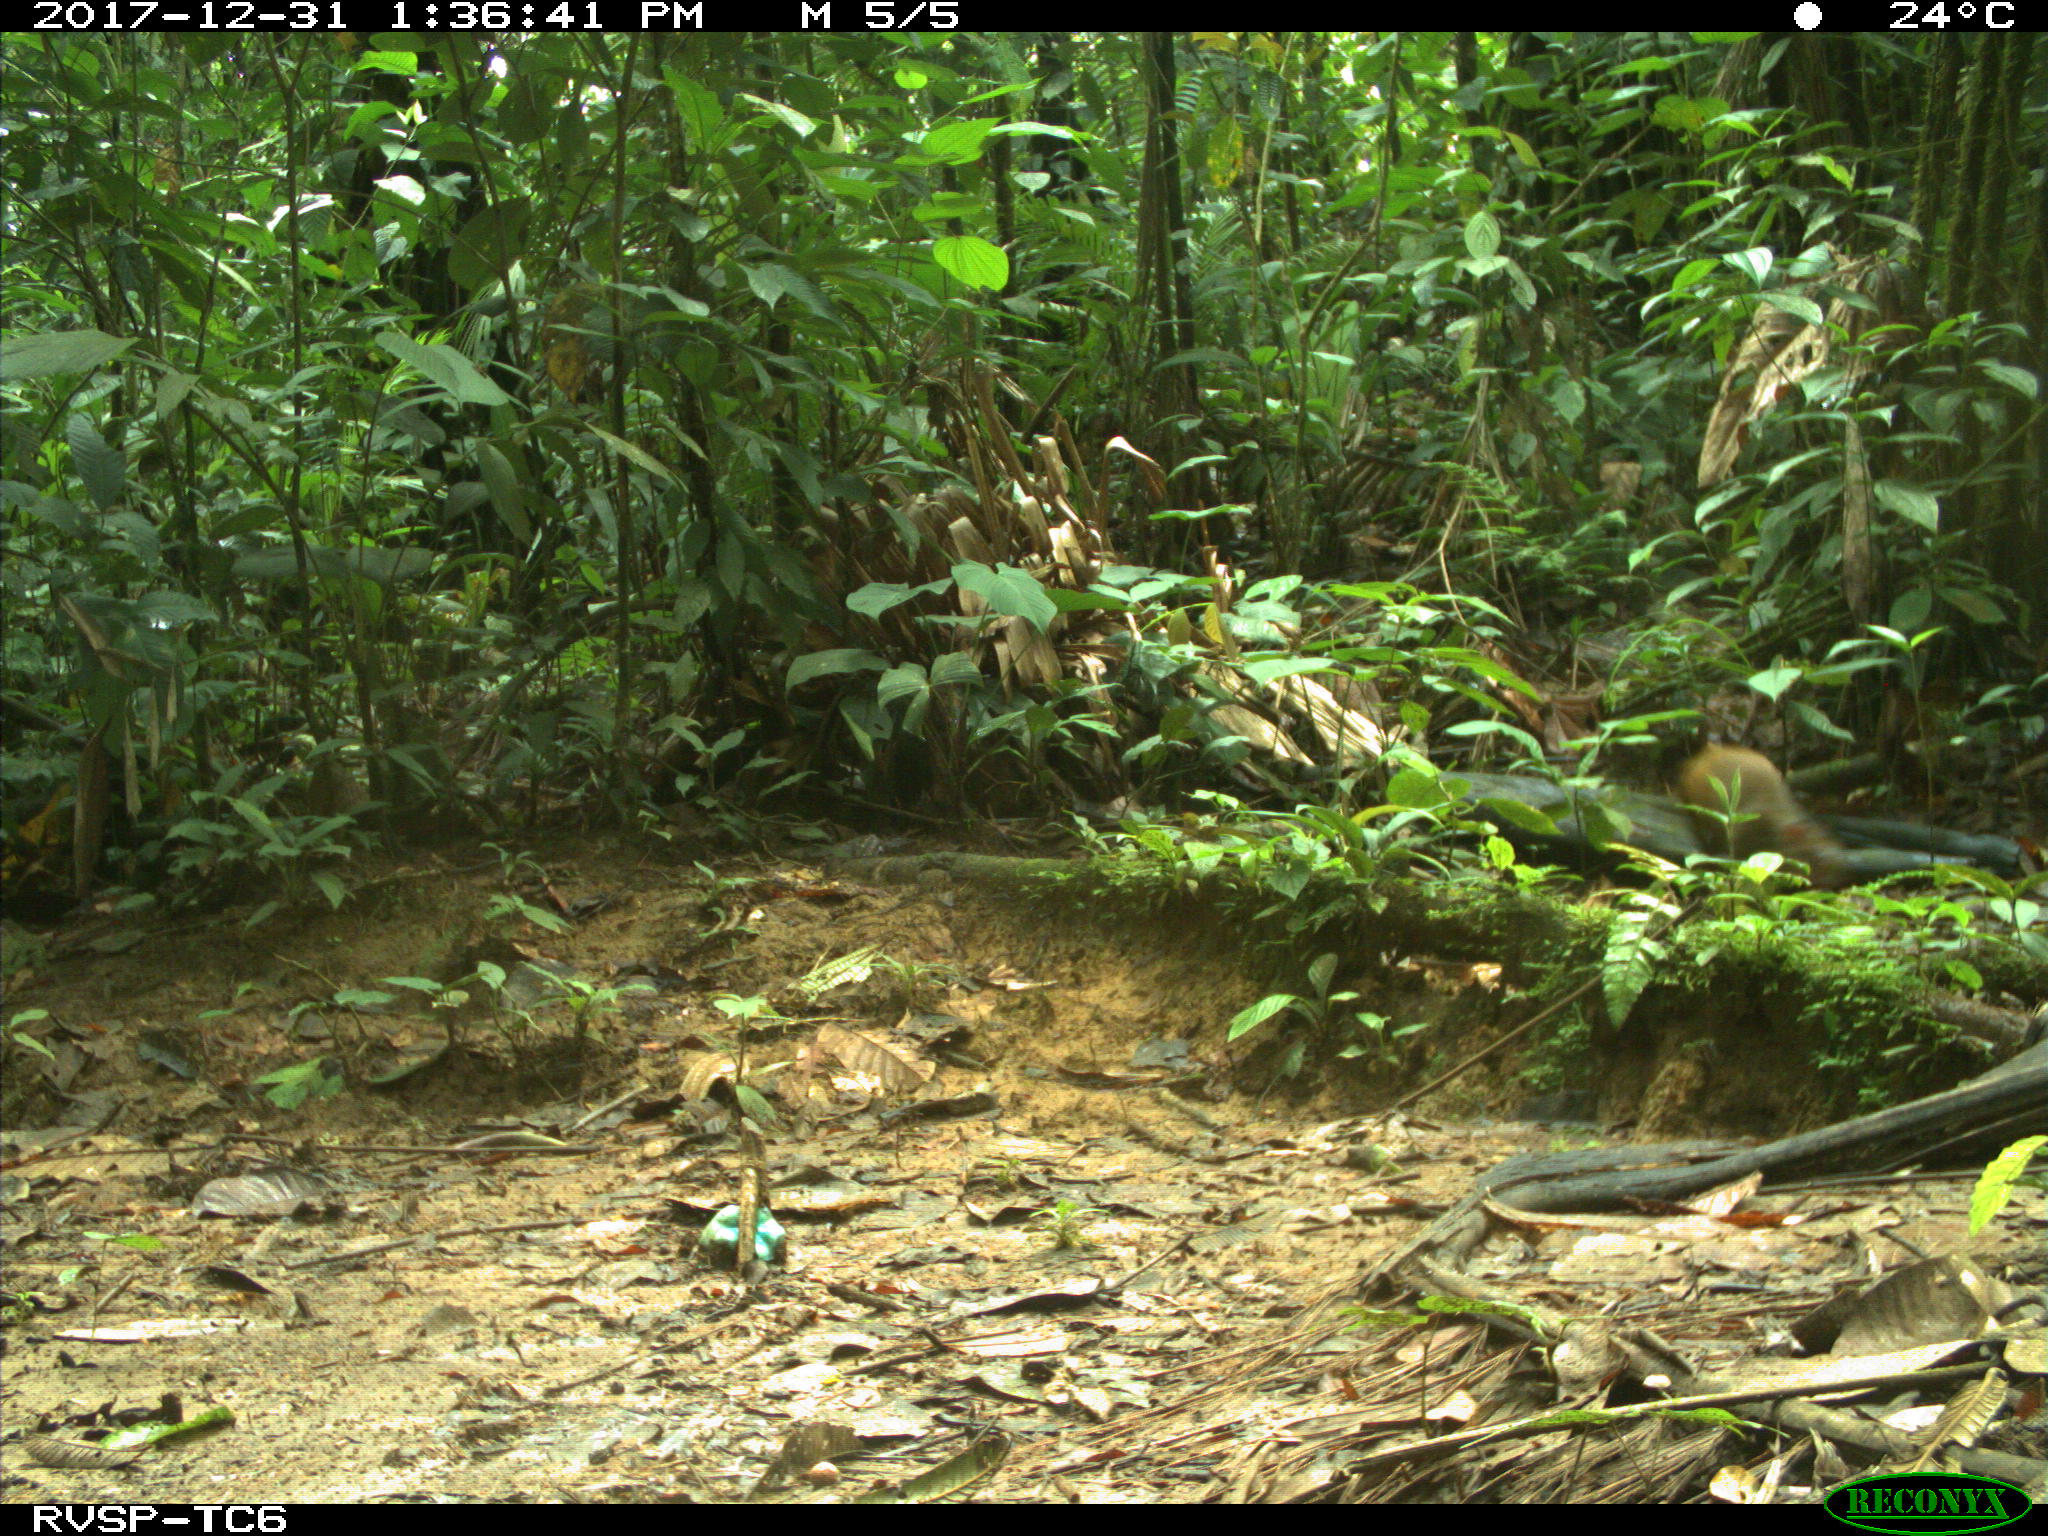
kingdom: Animalia
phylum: Chordata
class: Mammalia
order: Rodentia
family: Dasyproctidae
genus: Dasyprocta
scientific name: Dasyprocta punctata
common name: Central american agouti
